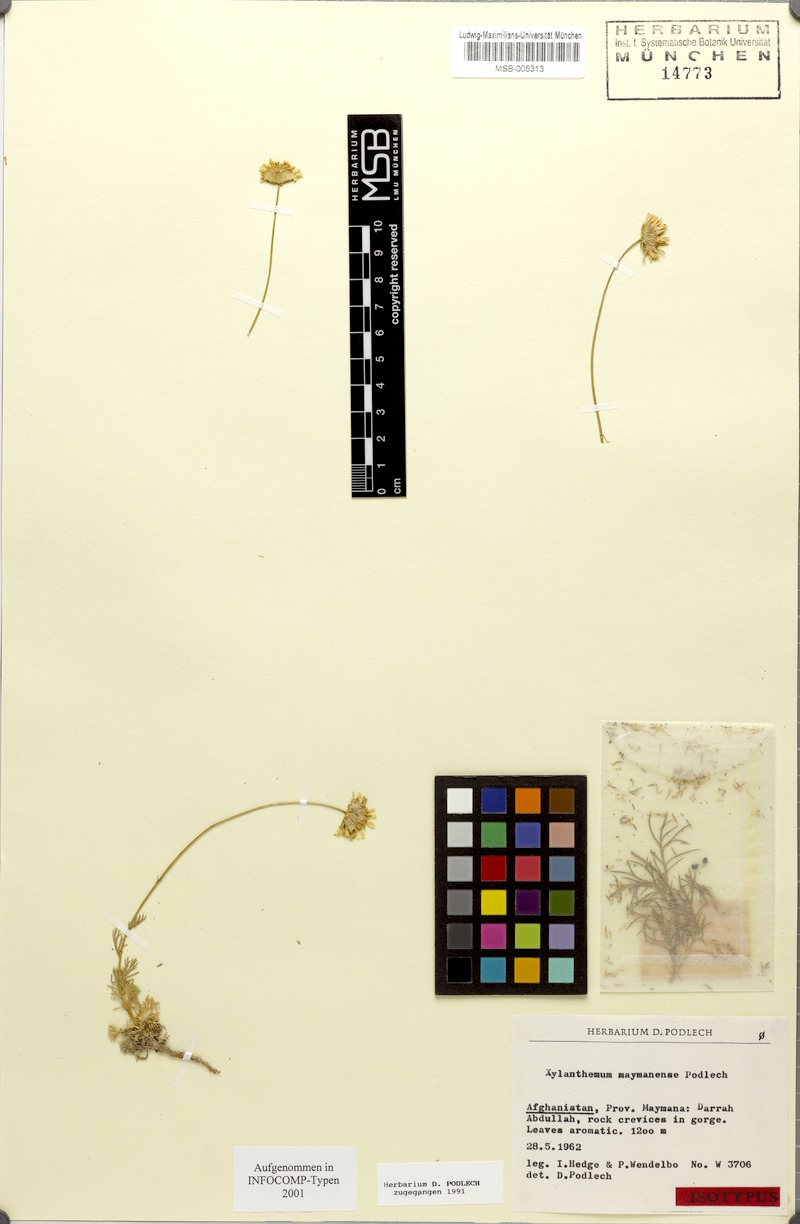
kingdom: Plantae
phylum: Tracheophyta
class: Magnoliopsida
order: Asterales
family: Asteraceae
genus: Tanacetum
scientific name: Tanacetum maymanense
